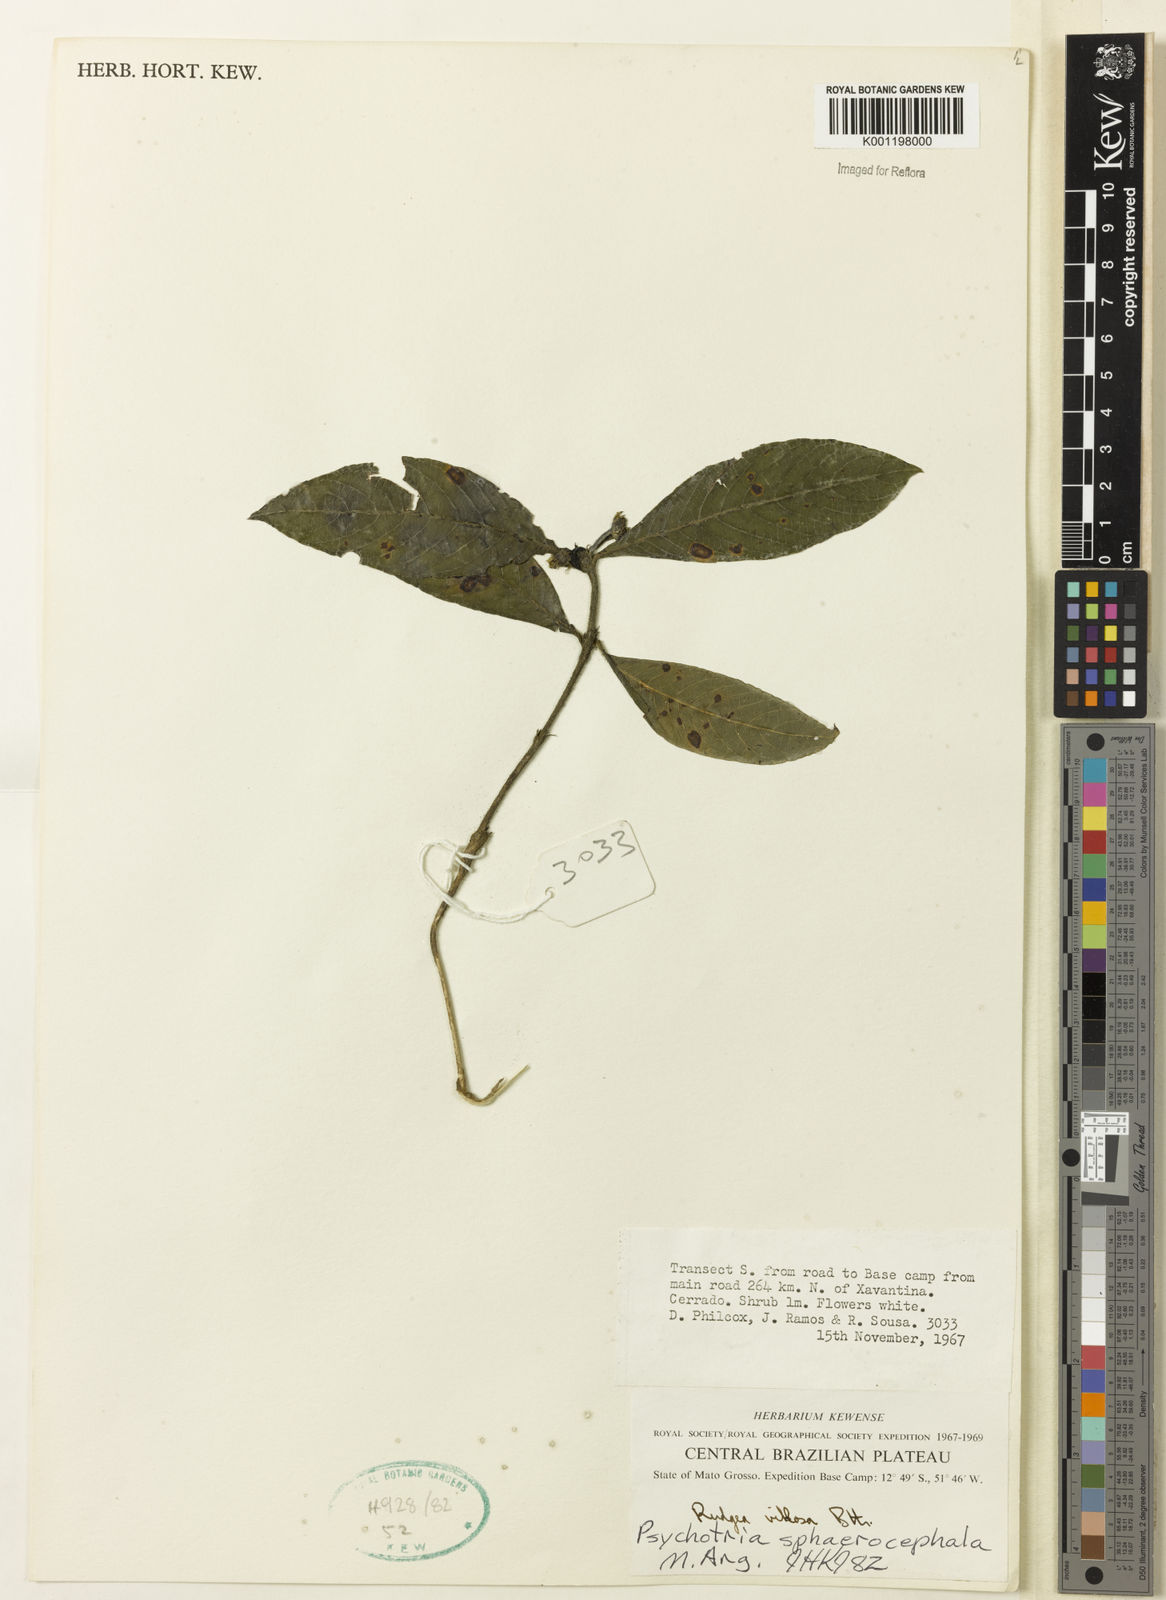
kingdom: Plantae
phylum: Tracheophyta
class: Magnoliopsida
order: Gentianales
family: Rubiaceae
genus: Psychotria
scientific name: Psychotria
